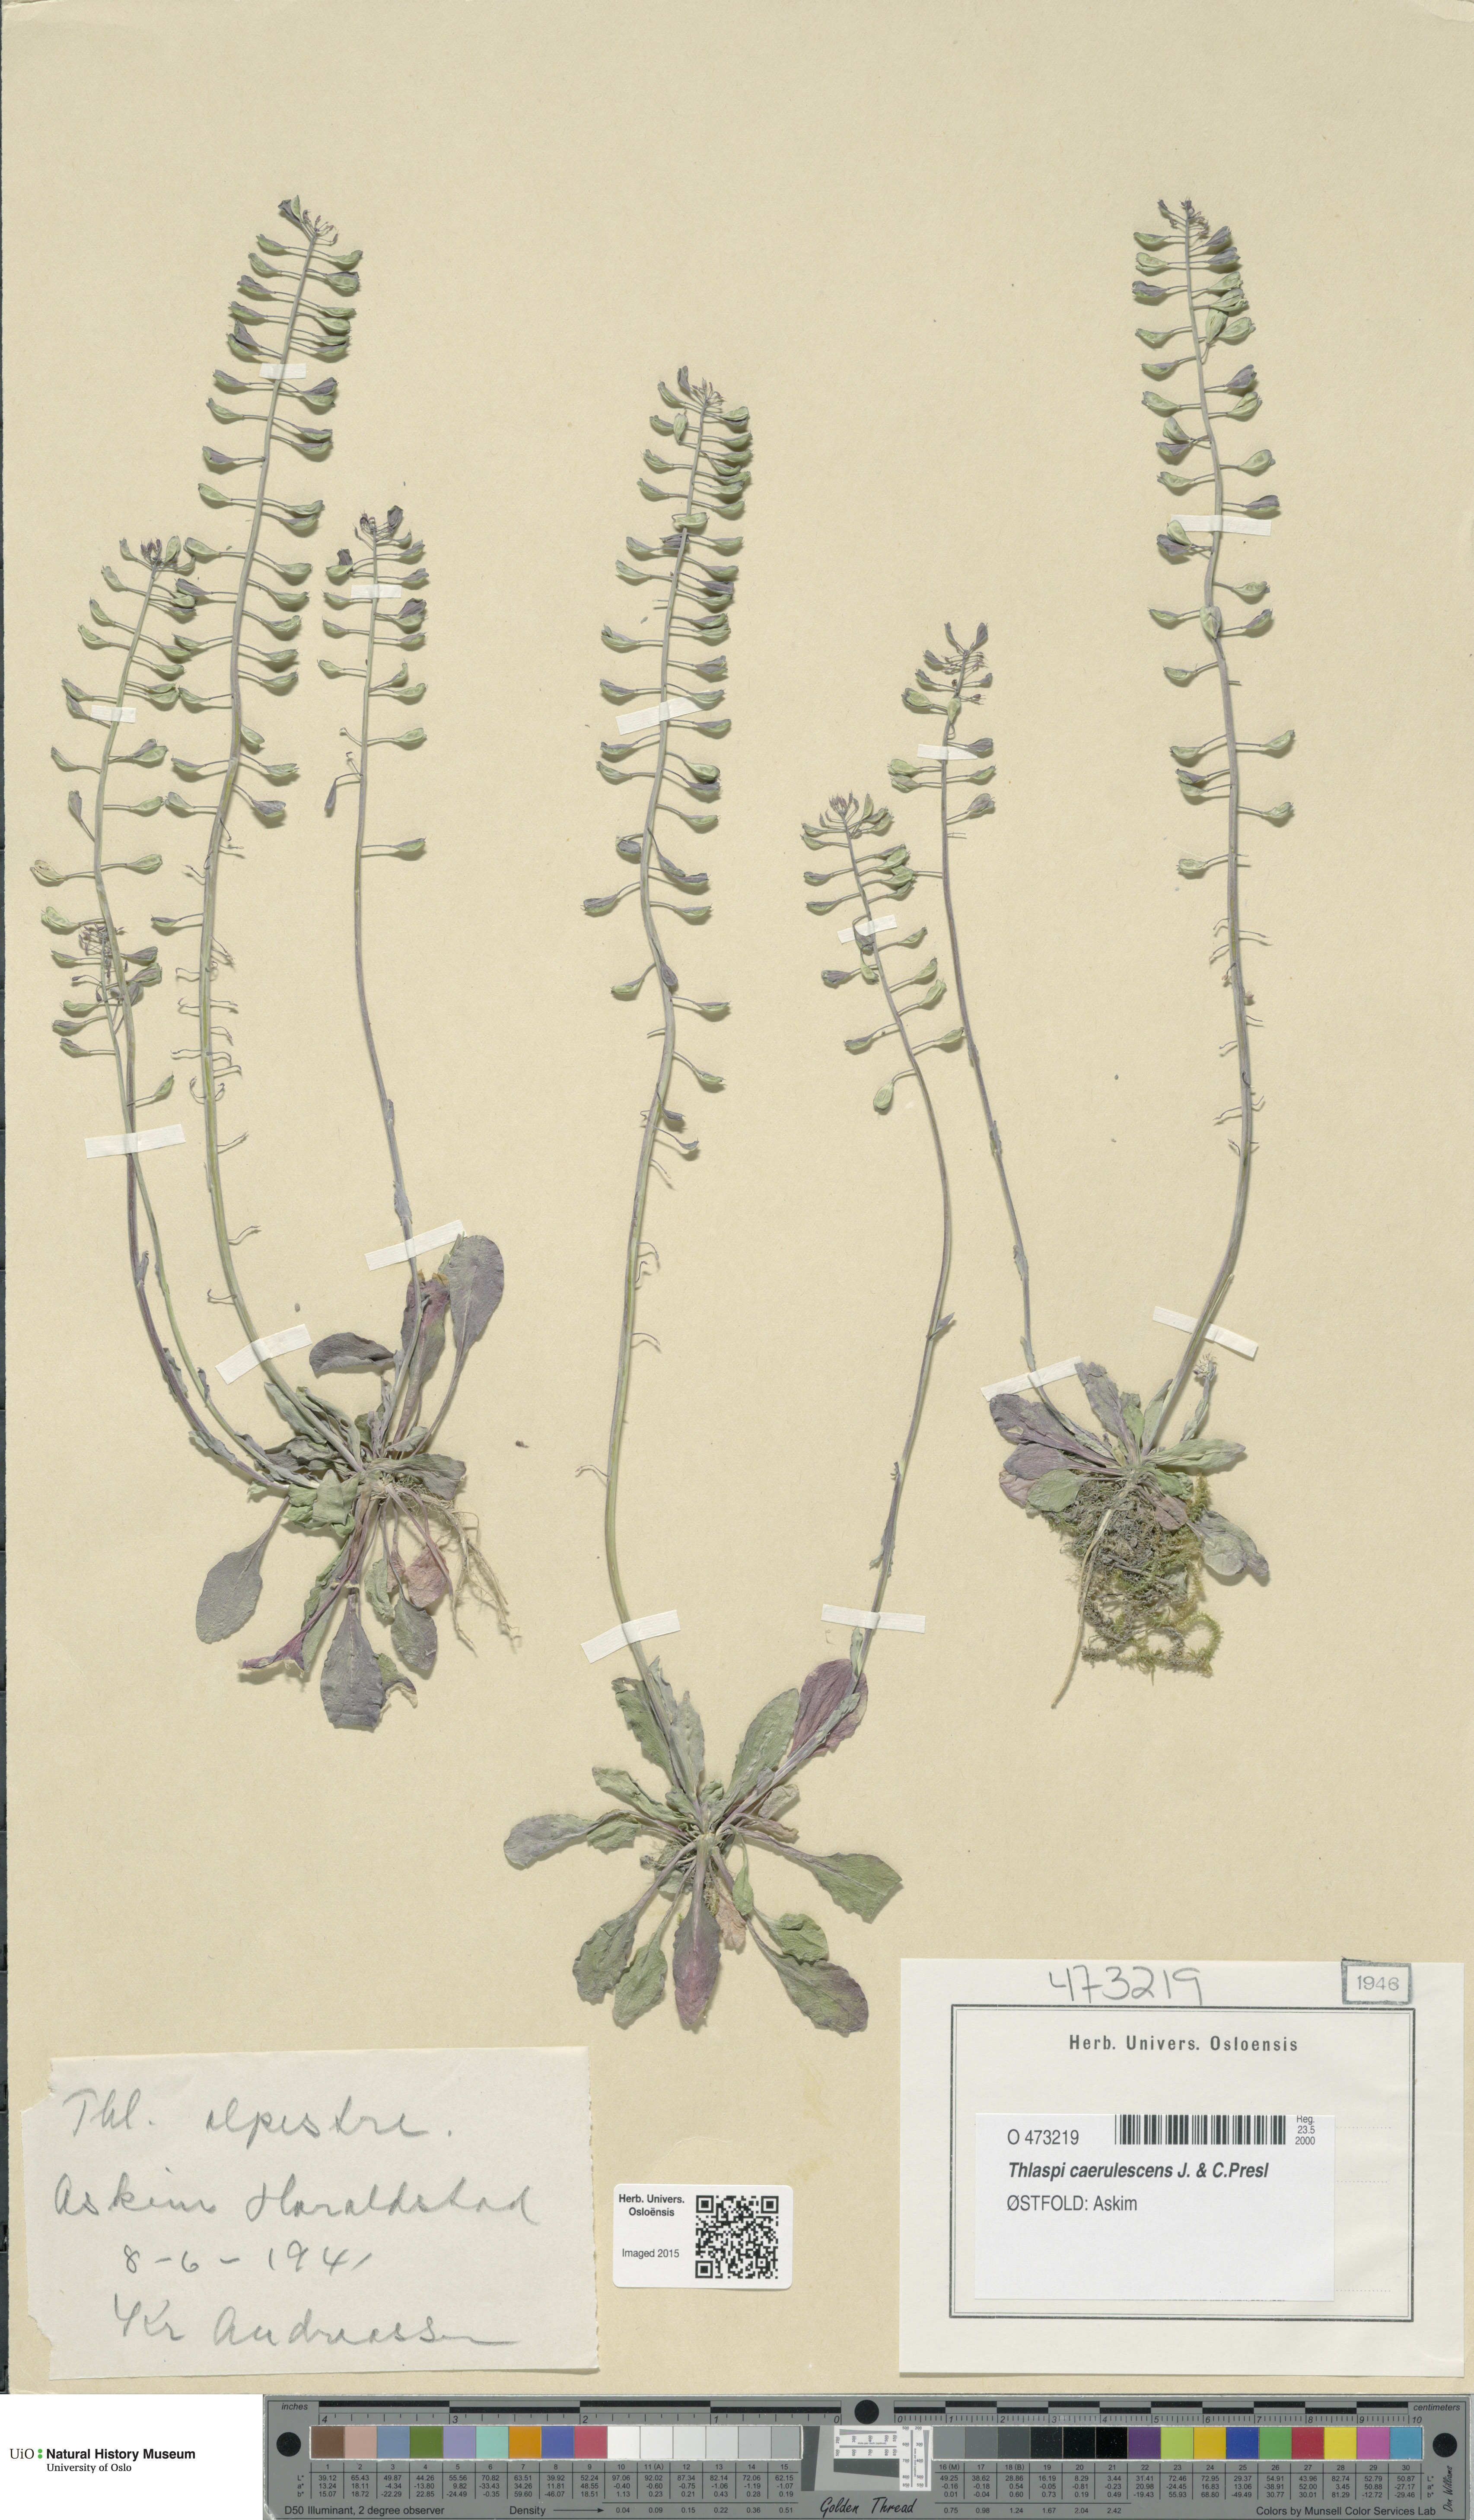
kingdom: Plantae
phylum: Tracheophyta
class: Magnoliopsida
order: Brassicales
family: Brassicaceae
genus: Noccaea
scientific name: Noccaea caerulescens
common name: Alpine pennycress
